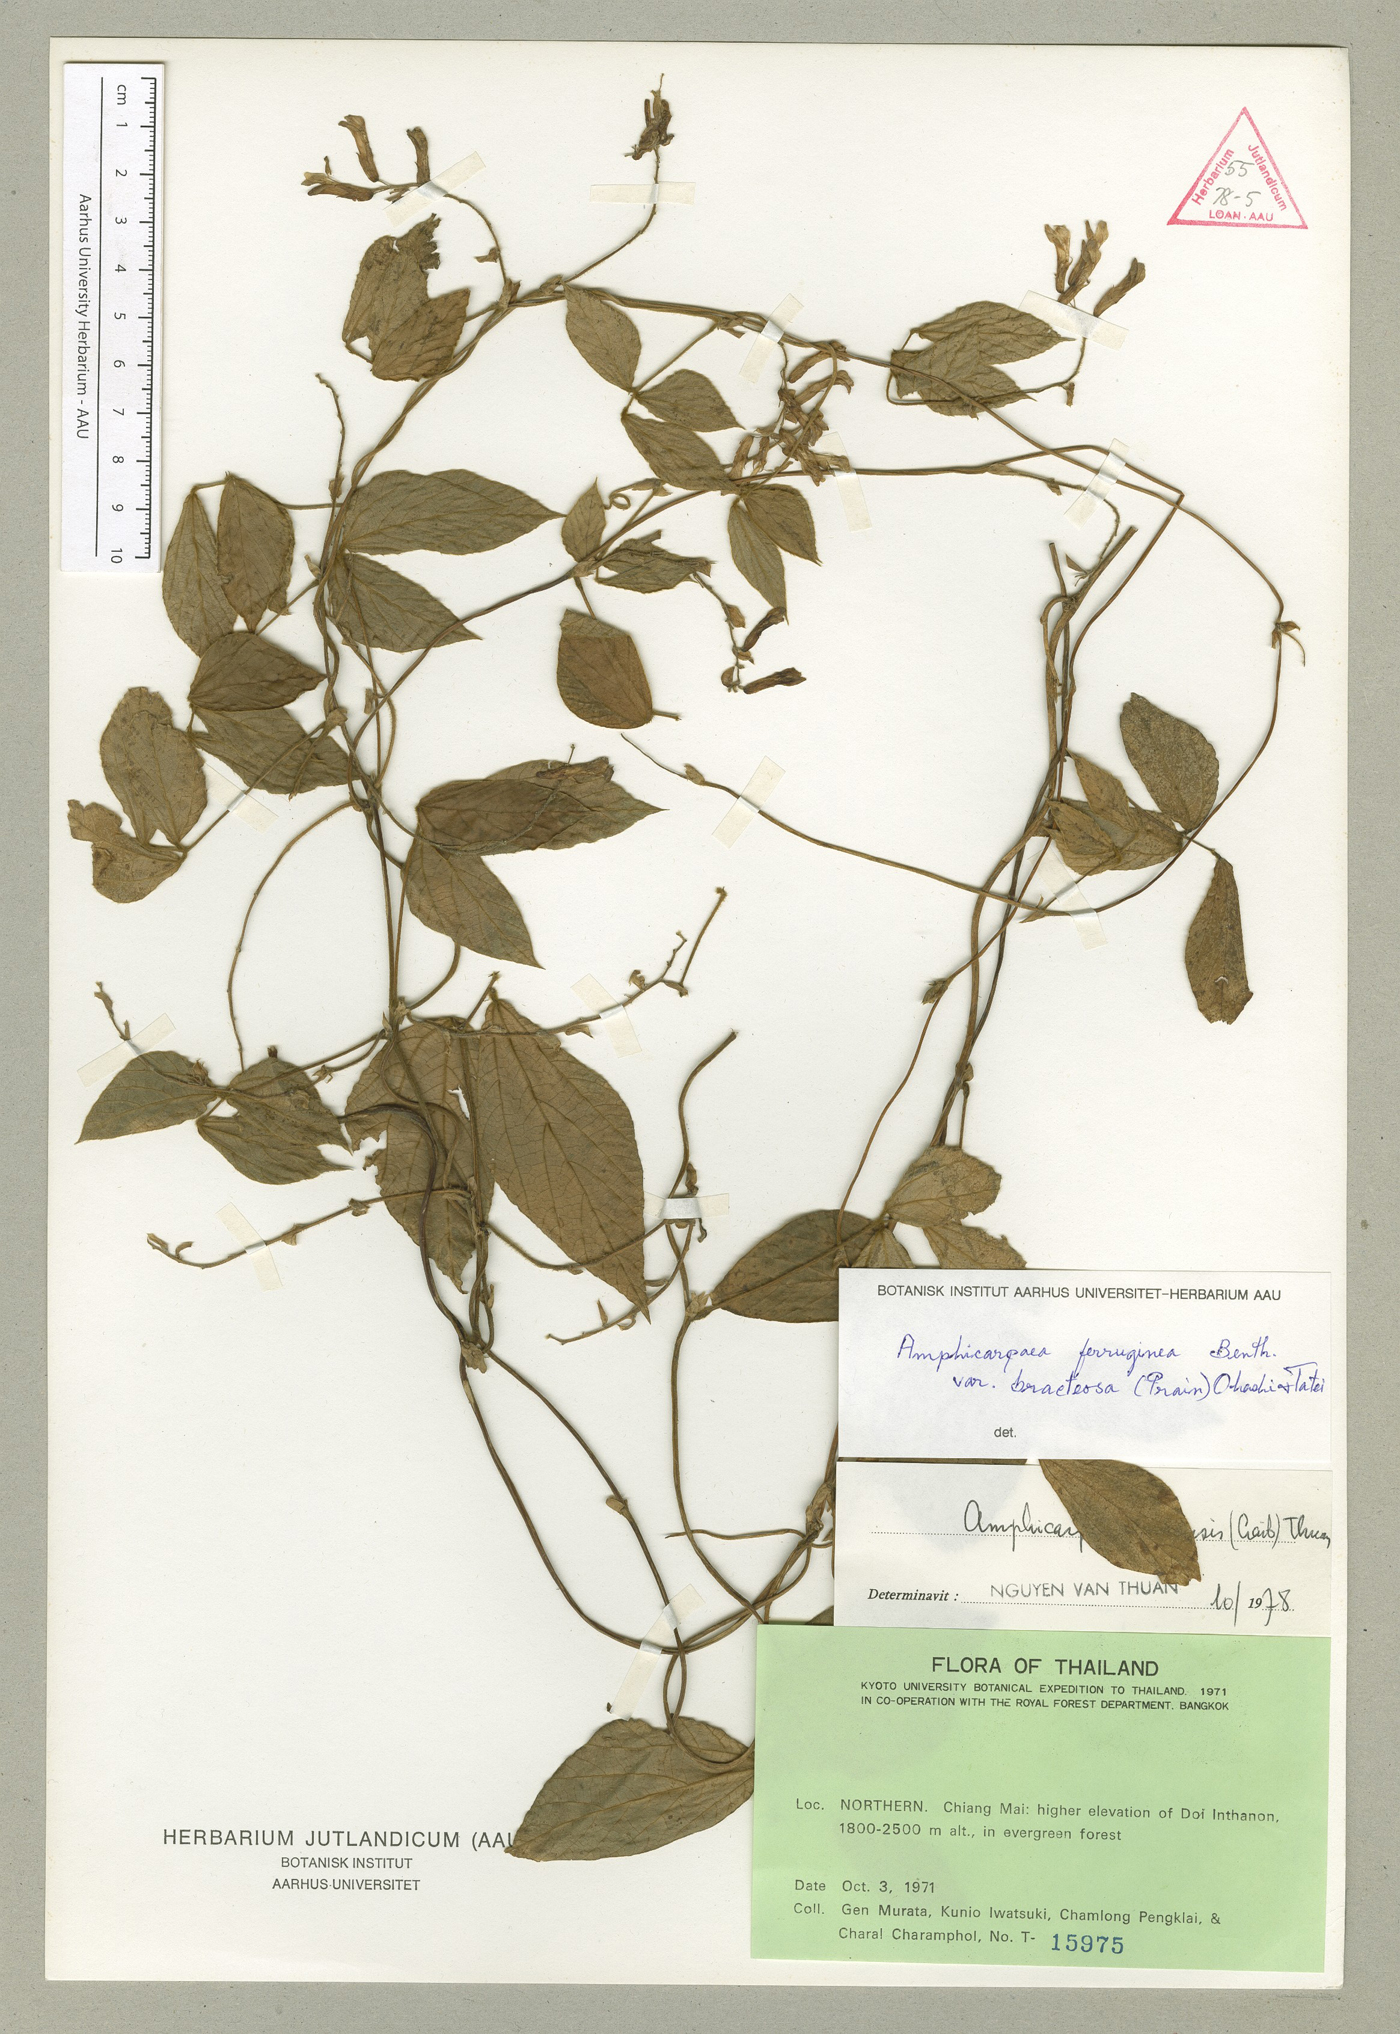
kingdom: Plantae
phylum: Tracheophyta
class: Magnoliopsida
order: Fabales
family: Fabaceae
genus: Amphicarpaea
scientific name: Amphicarpaea edgeworthii
